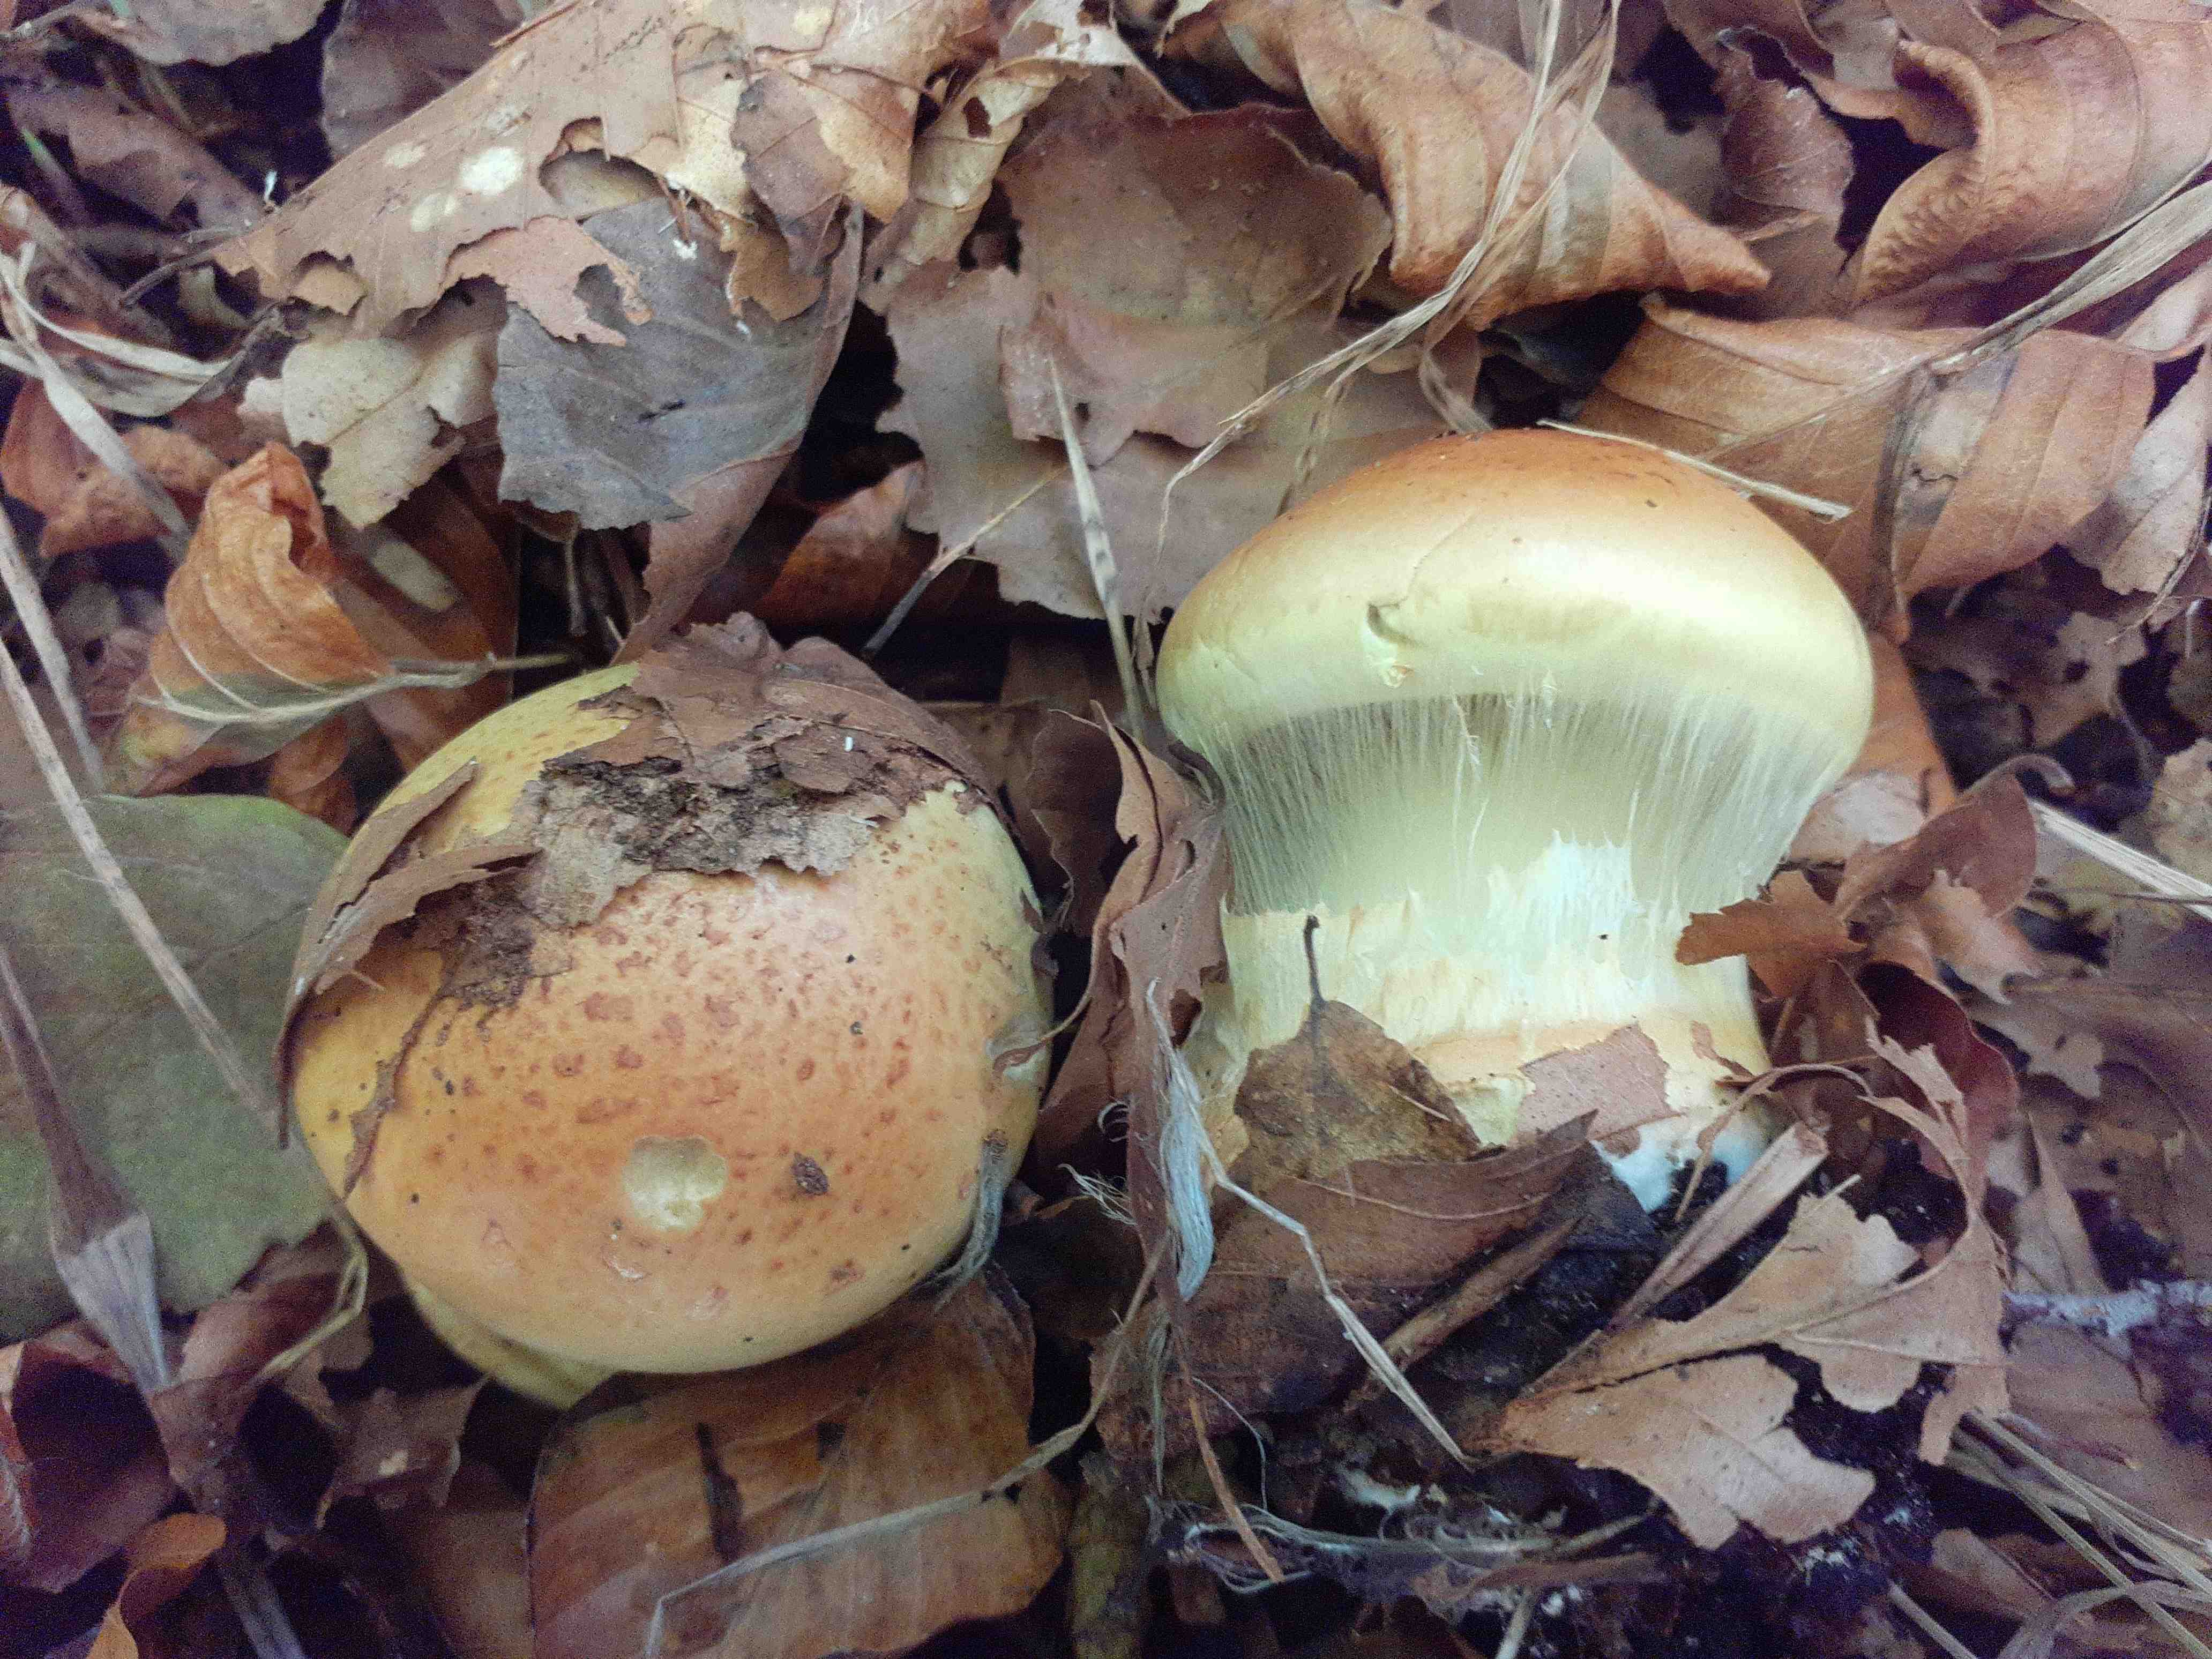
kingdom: Fungi
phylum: Basidiomycota
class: Agaricomycetes
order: Agaricales
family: Cortinariaceae
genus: Calonarius
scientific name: Calonarius elegantissimus
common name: orangegylden slørhat
